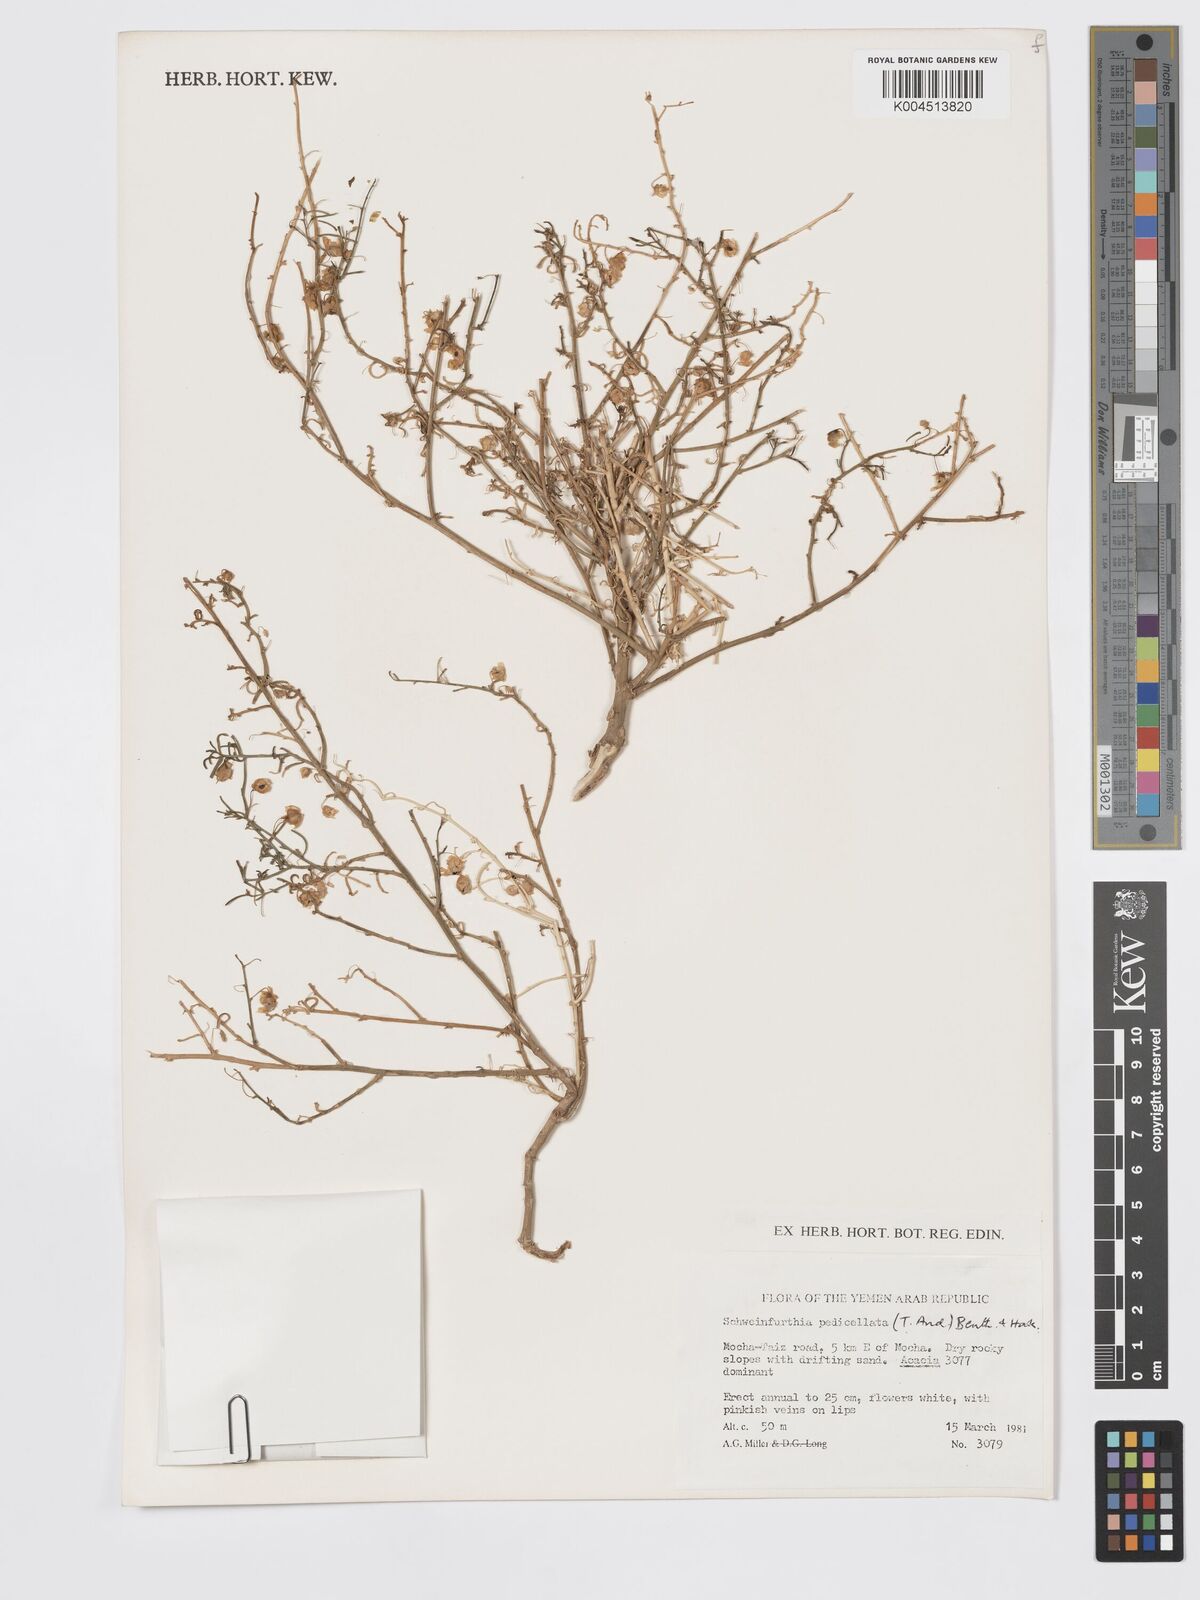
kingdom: Plantae
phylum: Tracheophyta
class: Magnoliopsida
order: Lamiales
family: Plantaginaceae
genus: Schweinfurthia
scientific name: Schweinfurthia pedicellata
